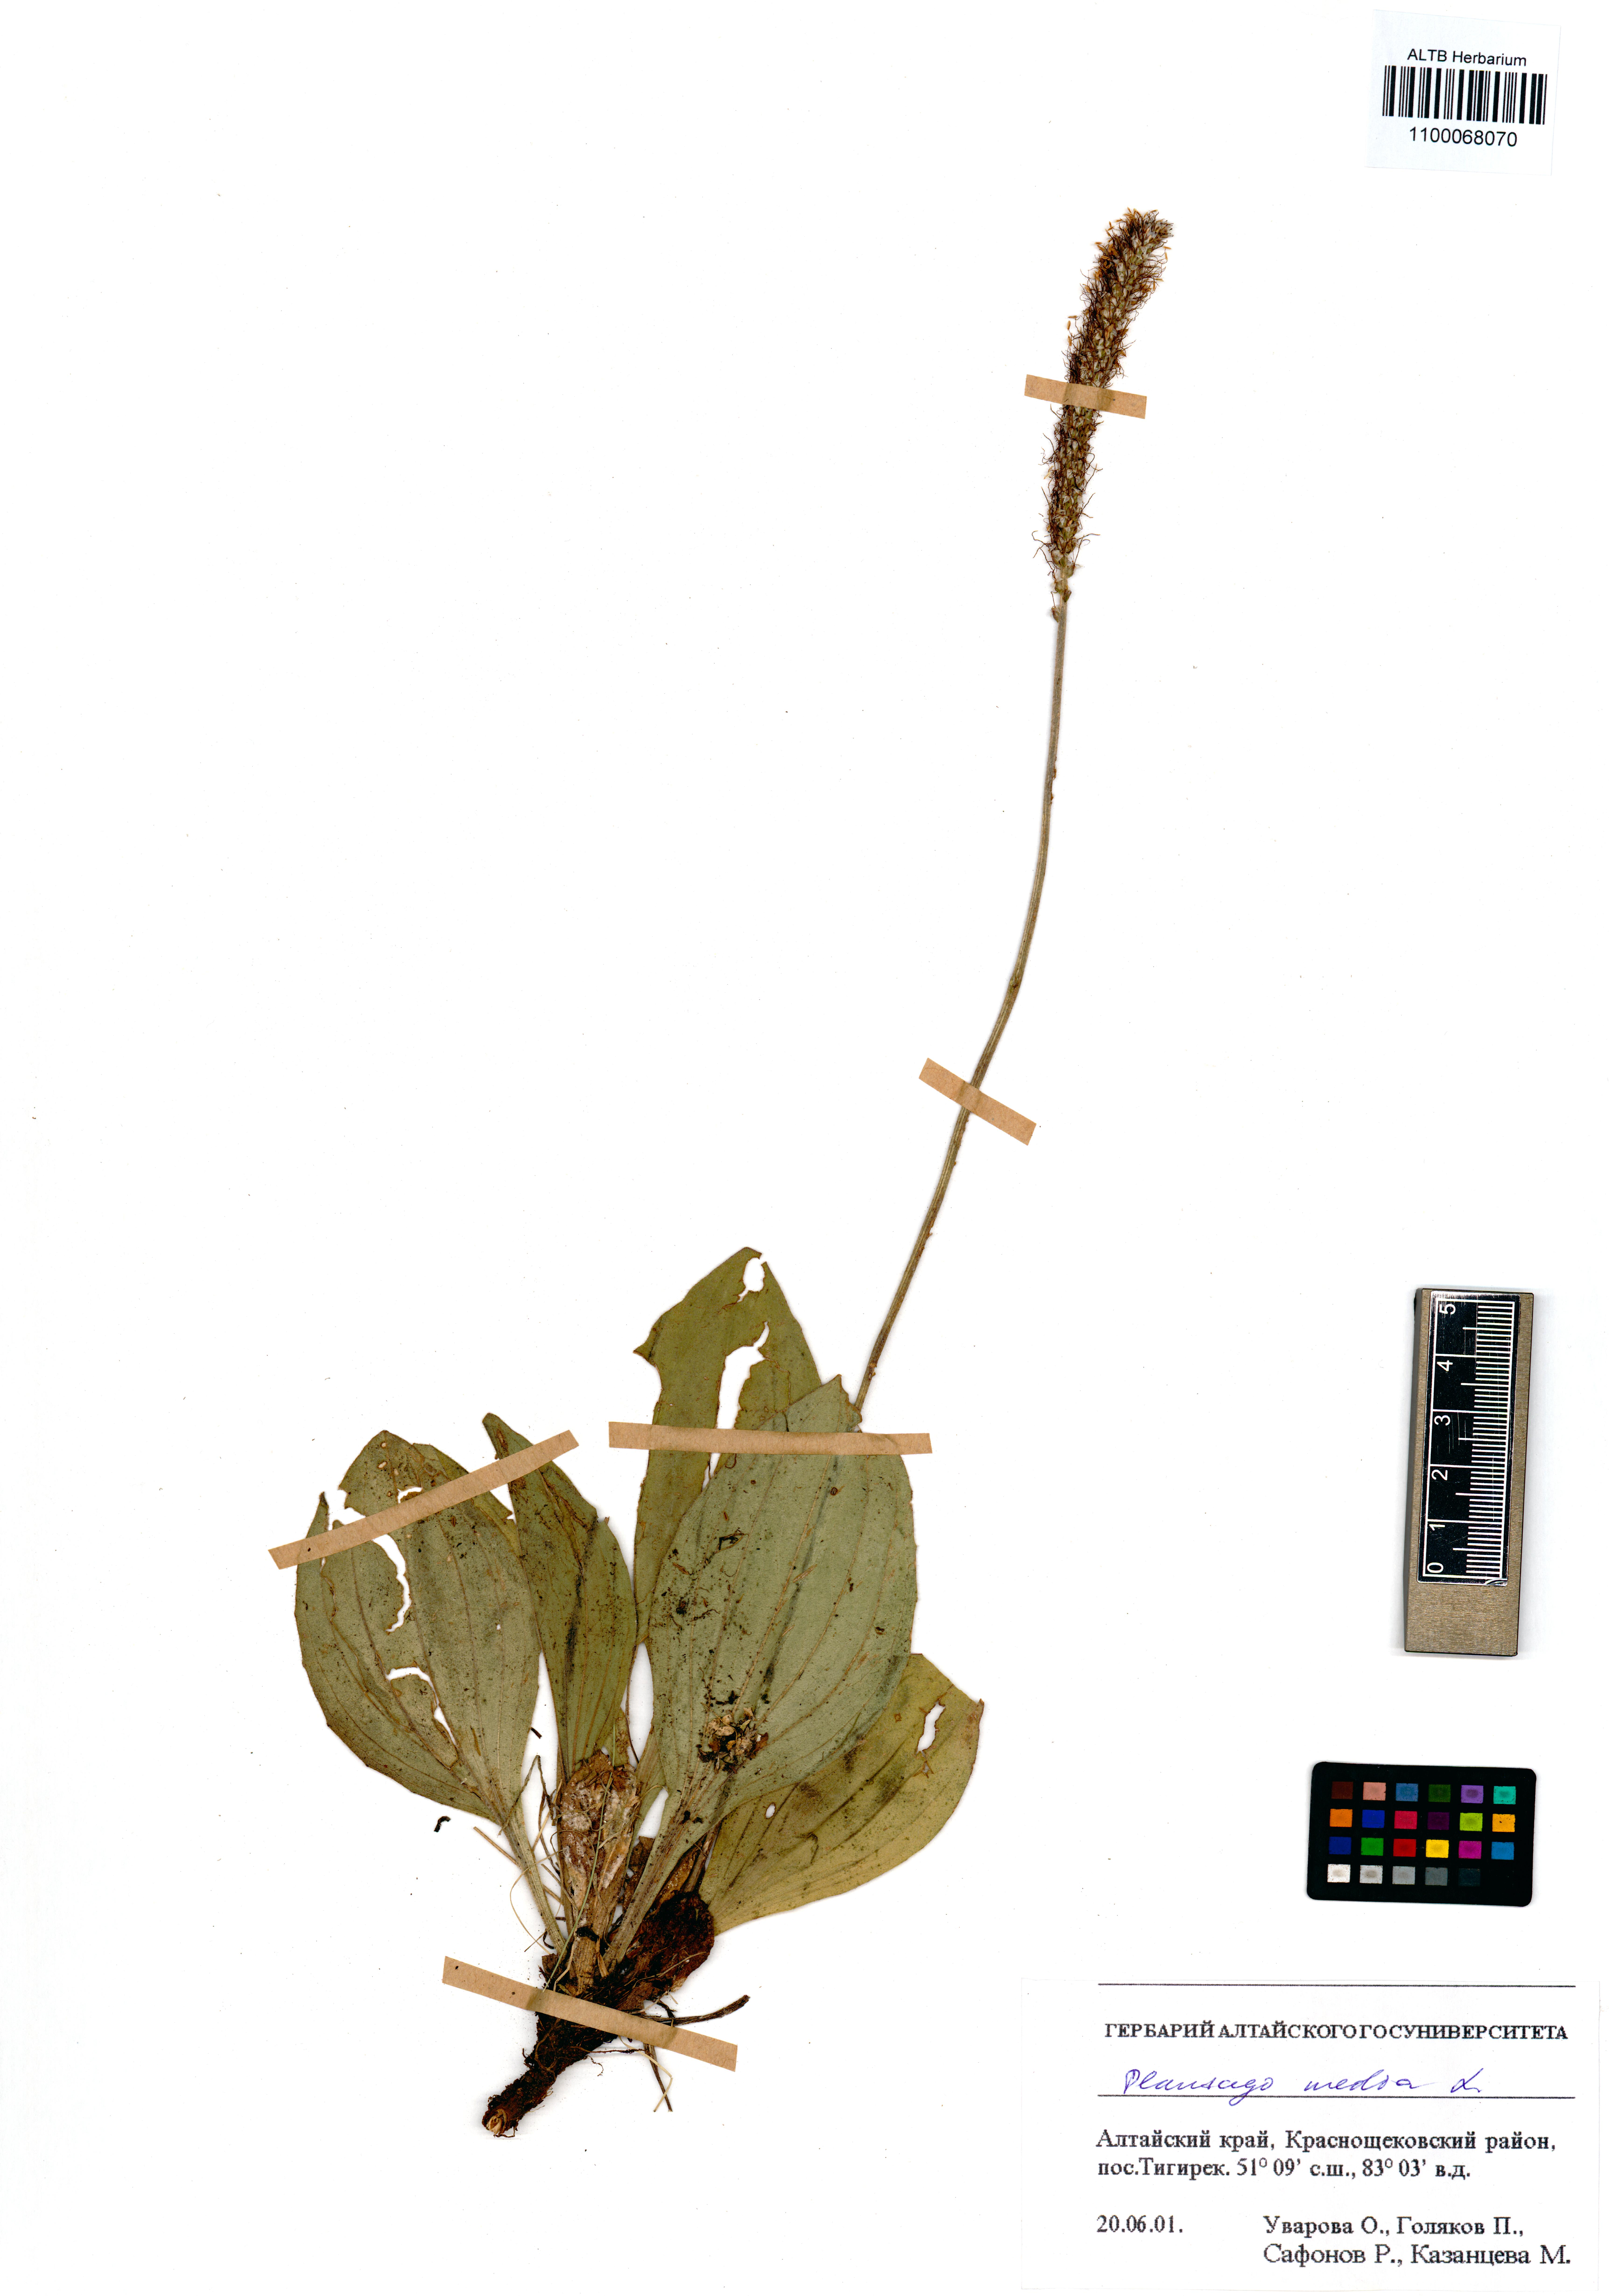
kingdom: Plantae
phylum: Tracheophyta
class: Magnoliopsida
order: Lamiales
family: Plantaginaceae
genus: Plantago
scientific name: Plantago media
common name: Hoary plantain
